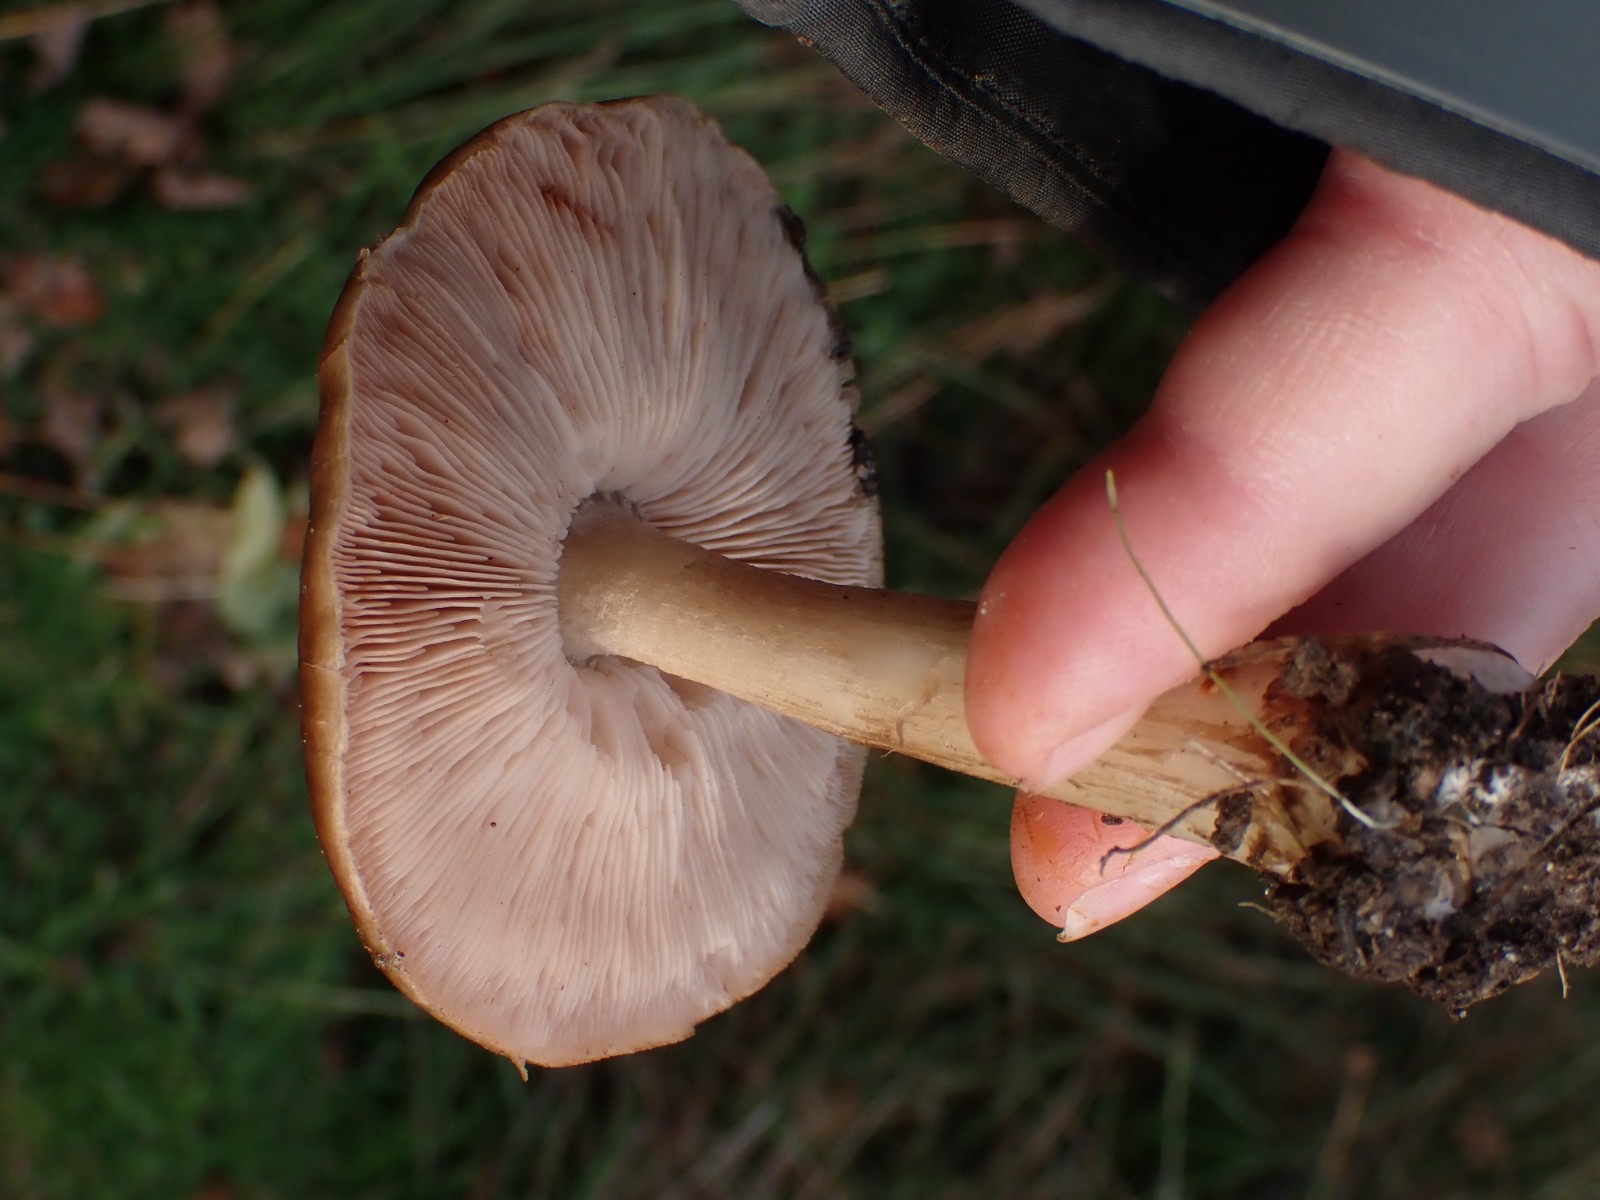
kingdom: Fungi
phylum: Basidiomycota
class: Agaricomycetes
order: Agaricales
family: Pluteaceae
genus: Pluteus
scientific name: Pluteus cervinus
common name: sodfarvet skærmhat
